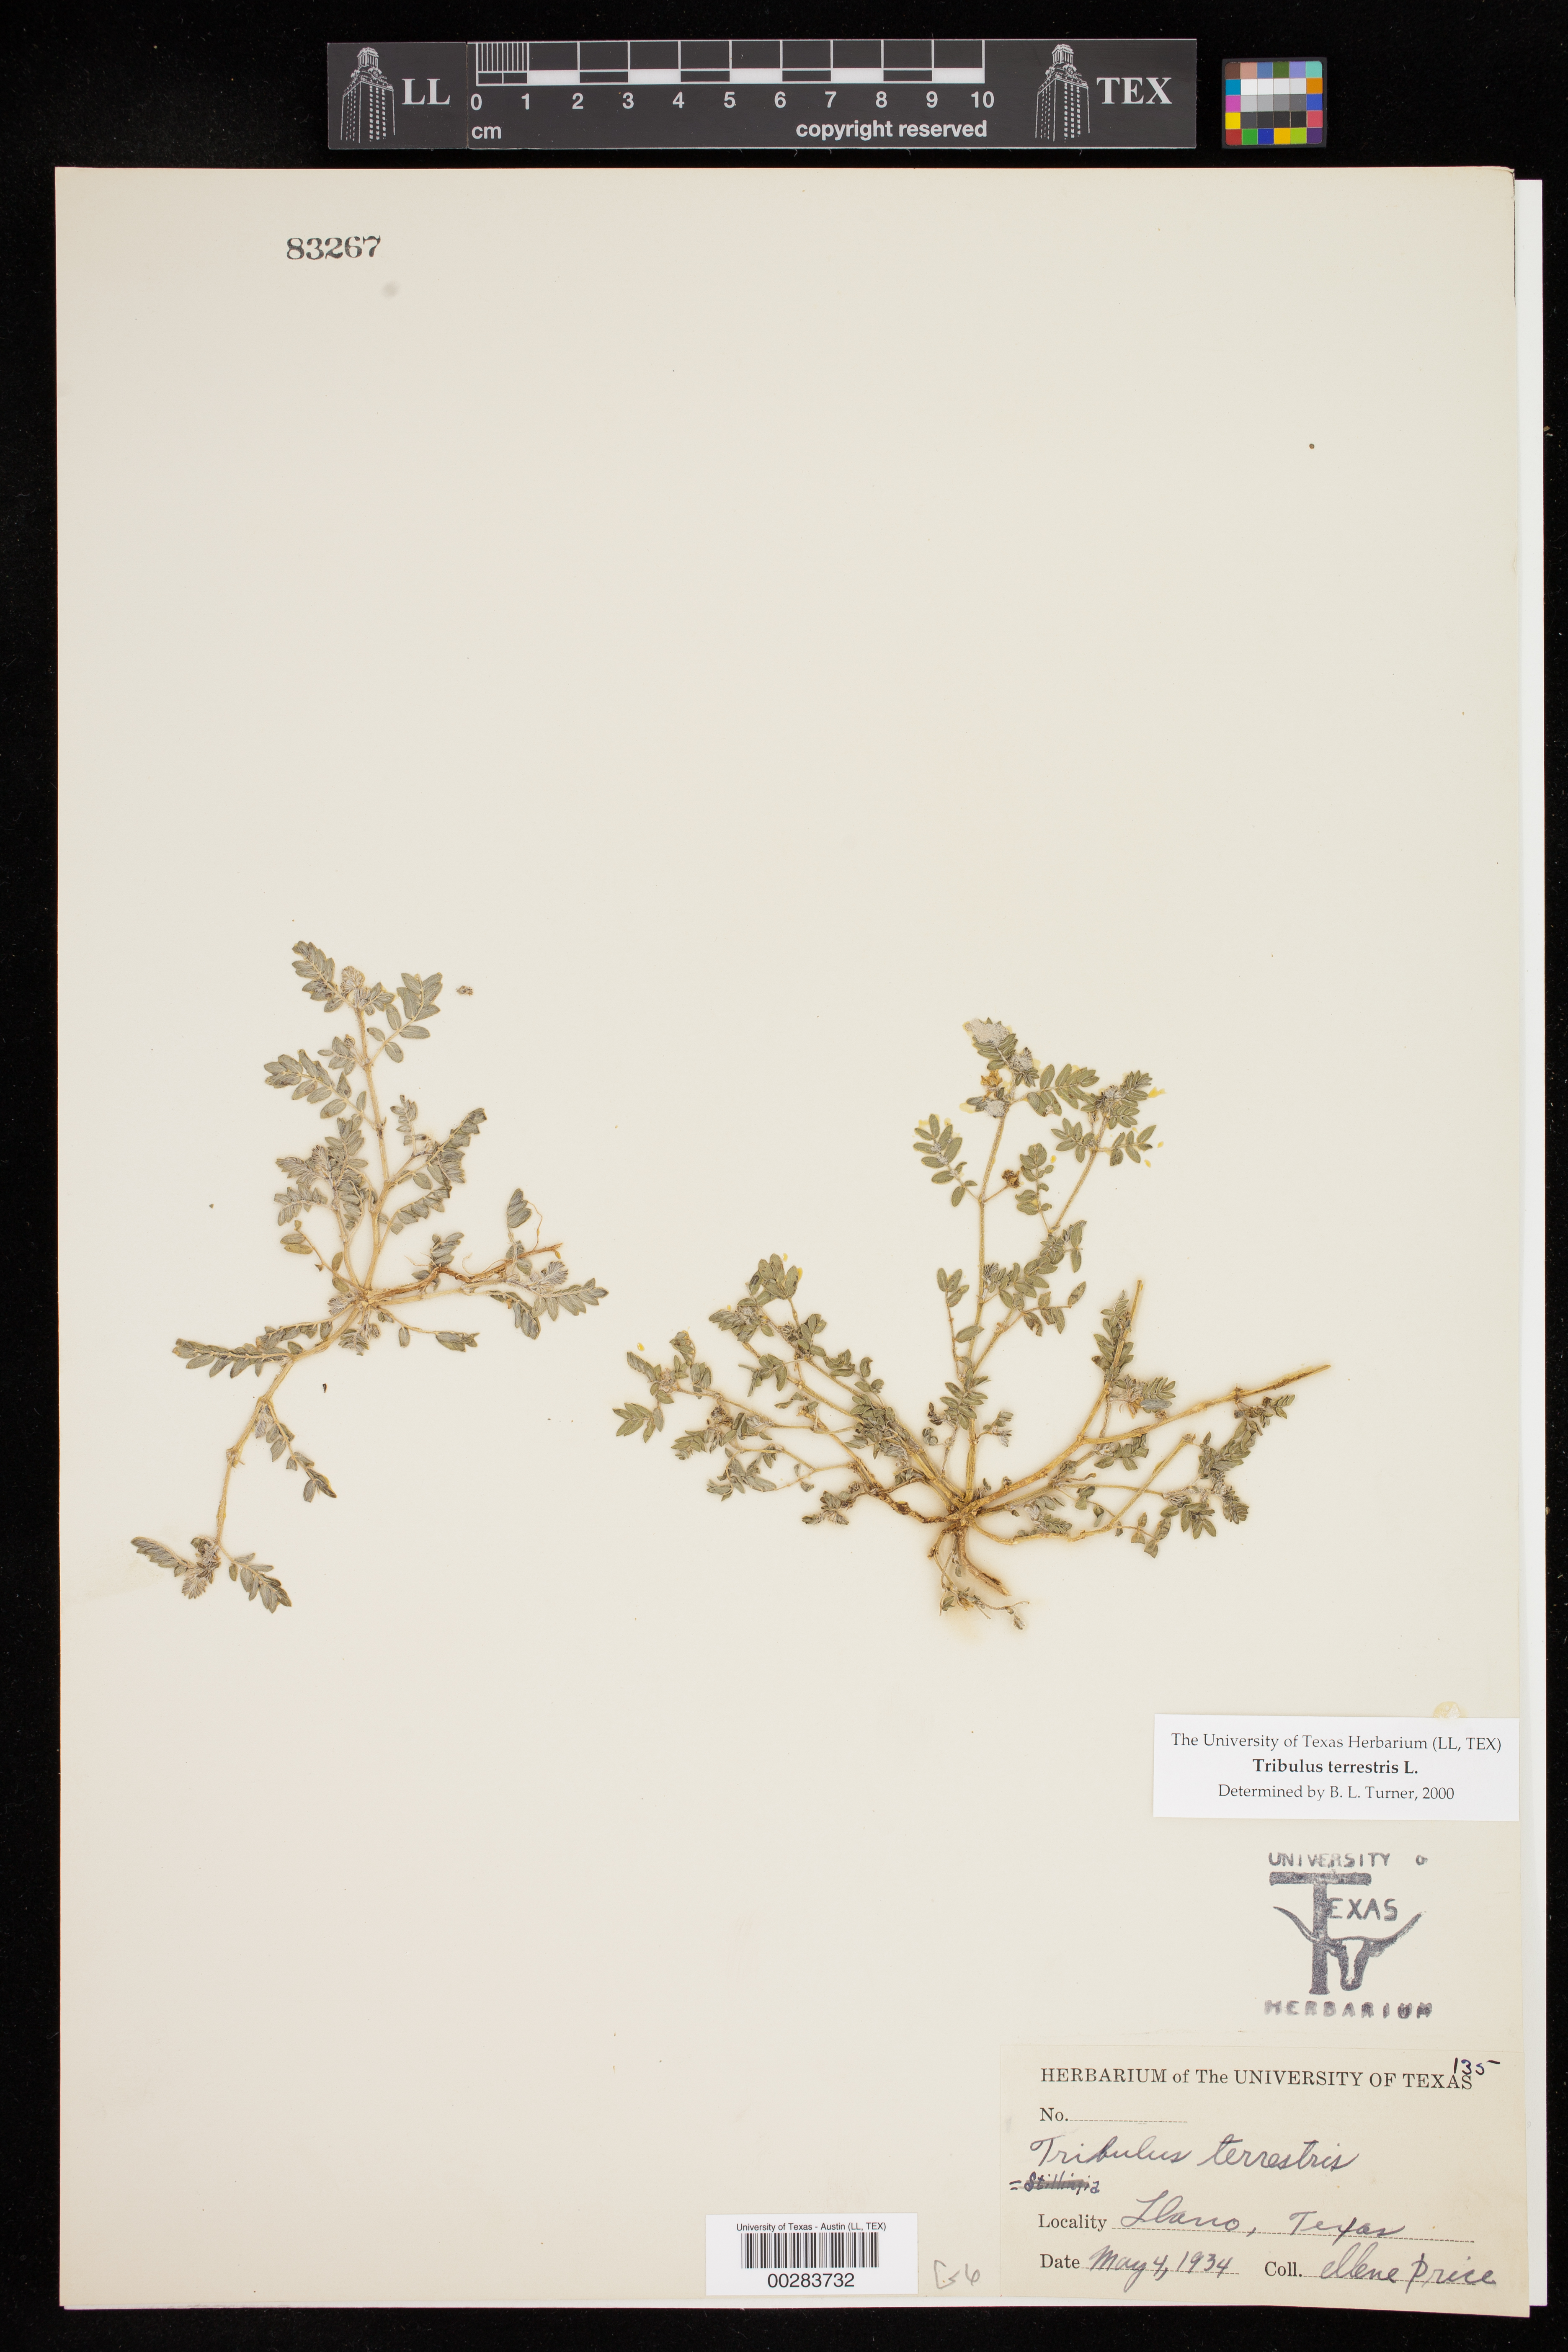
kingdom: Plantae
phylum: Tracheophyta
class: Magnoliopsida
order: Zygophyllales
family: Zygophyllaceae
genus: Tribulus
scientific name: Tribulus terrestris
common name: Puncturevine
